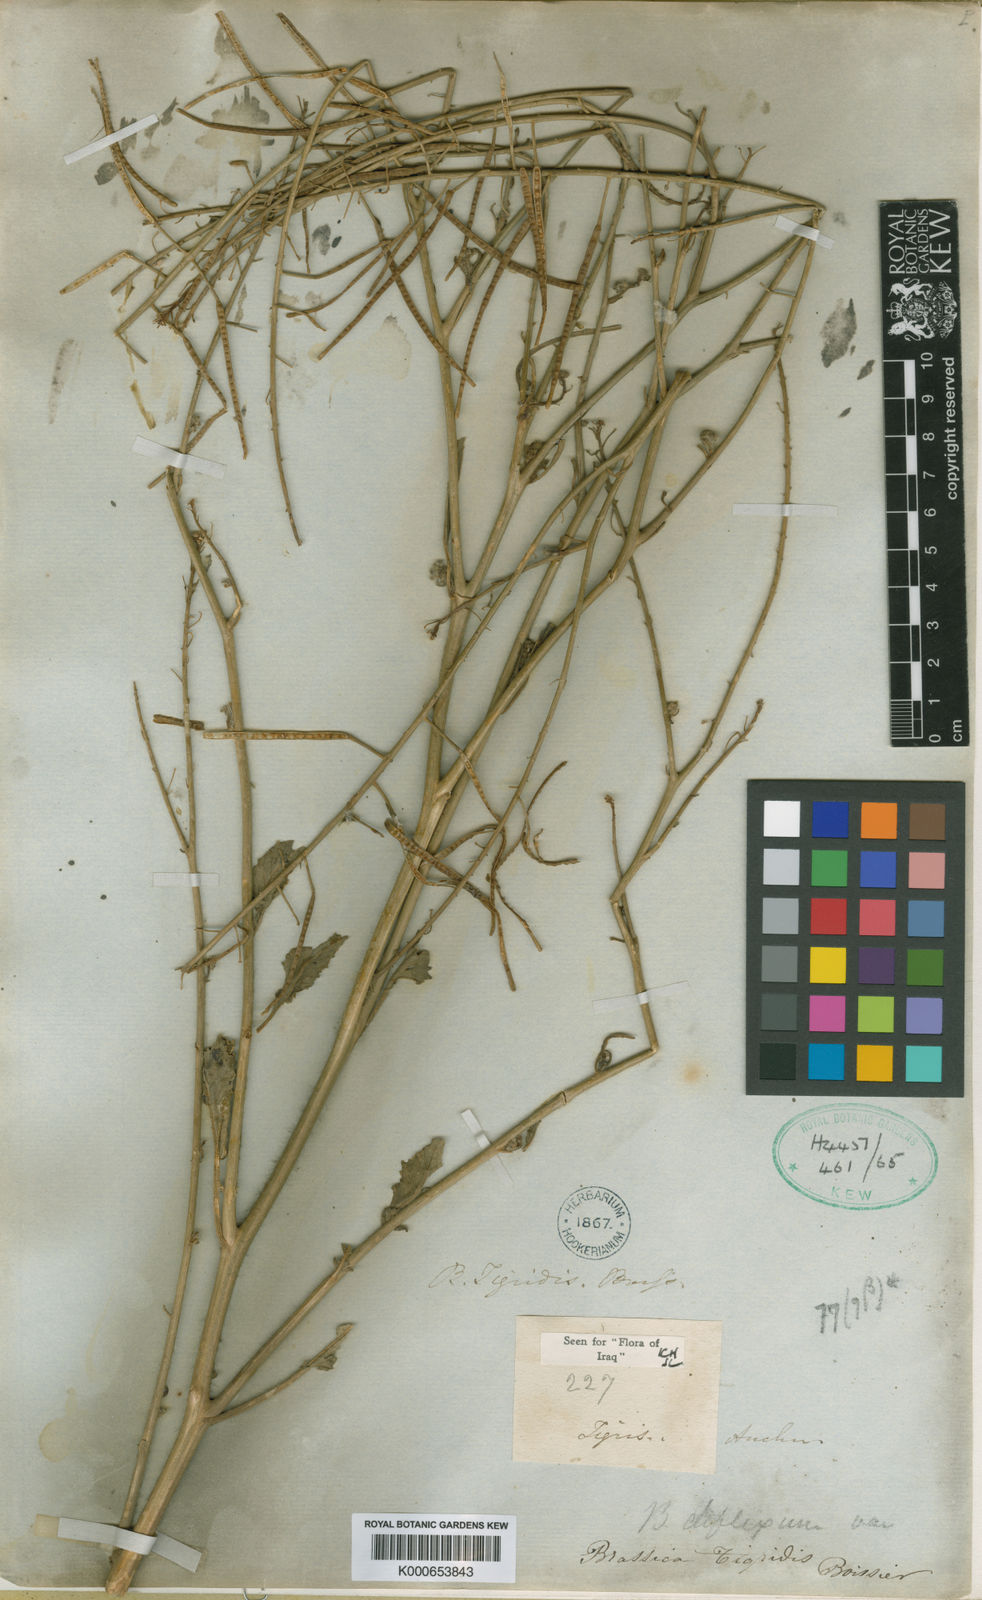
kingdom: Plantae
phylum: Tracheophyta
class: Magnoliopsida
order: Brassicales
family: Brassicaceae
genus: Brassica
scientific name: Brassica deflexa
